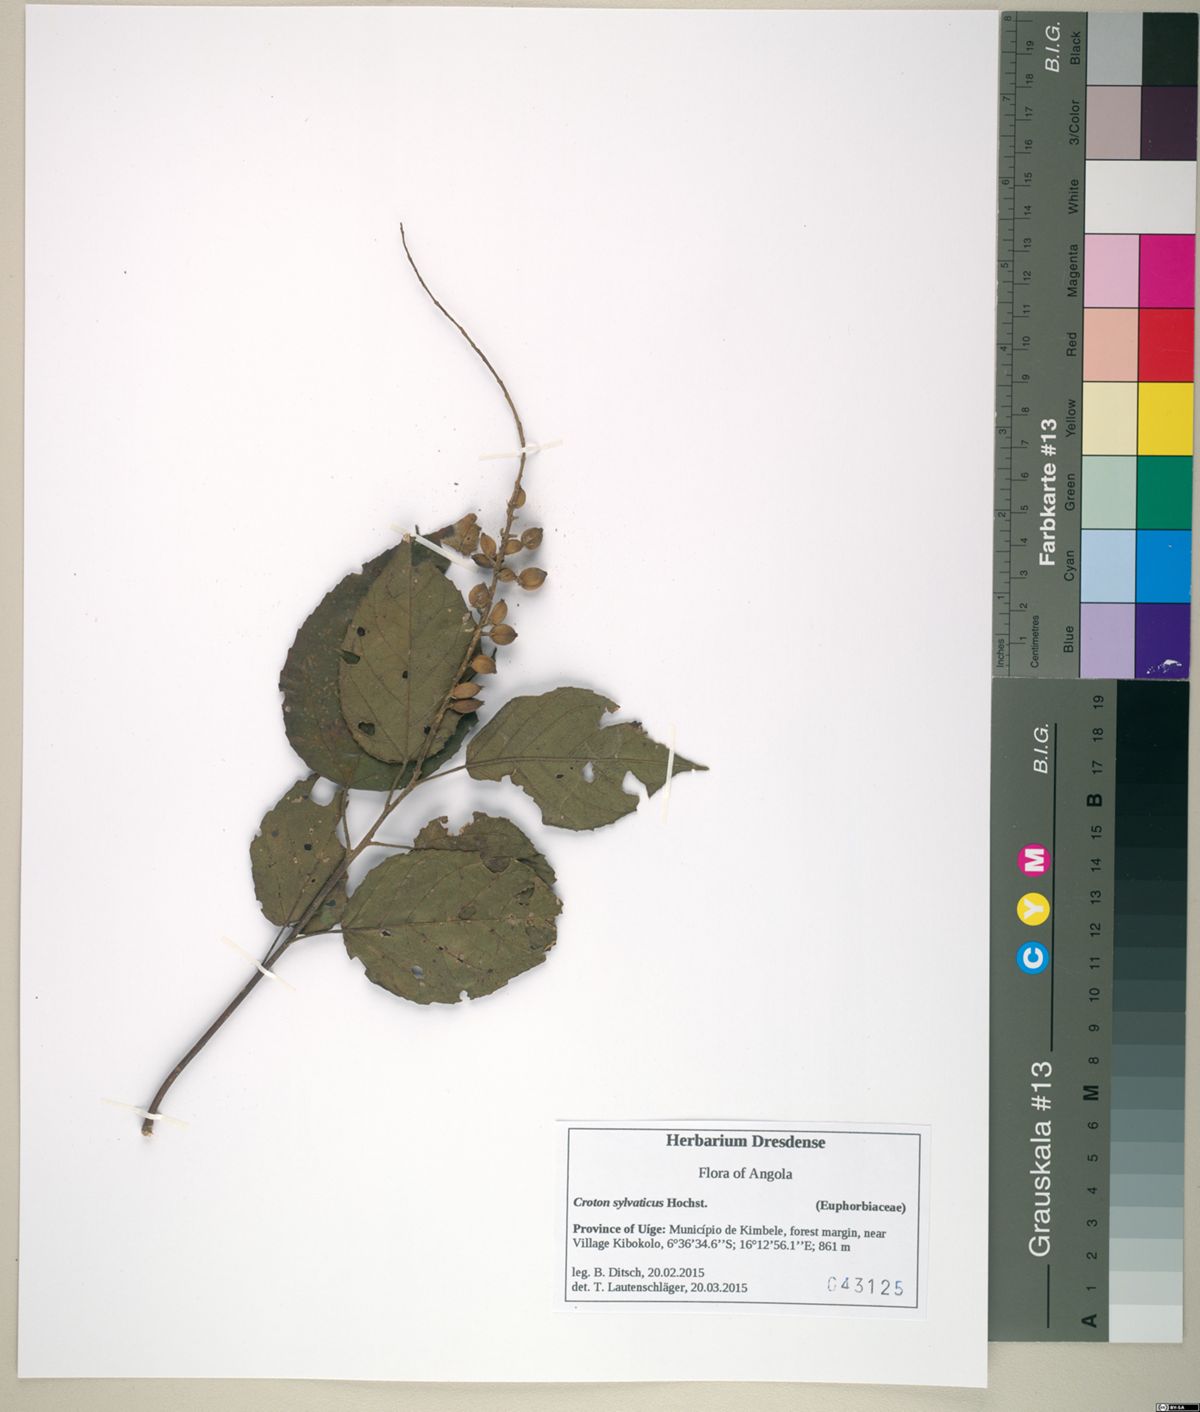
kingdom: Plantae
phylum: Tracheophyta
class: Magnoliopsida
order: Malpighiales
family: Euphorbiaceae
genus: Croton
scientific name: Croton sylvaticus
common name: Forest croton
